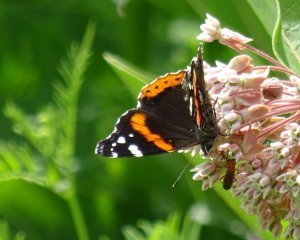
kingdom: Animalia
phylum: Arthropoda
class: Insecta
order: Lepidoptera
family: Nymphalidae
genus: Vanessa
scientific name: Vanessa atalanta
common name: Red Admiral
